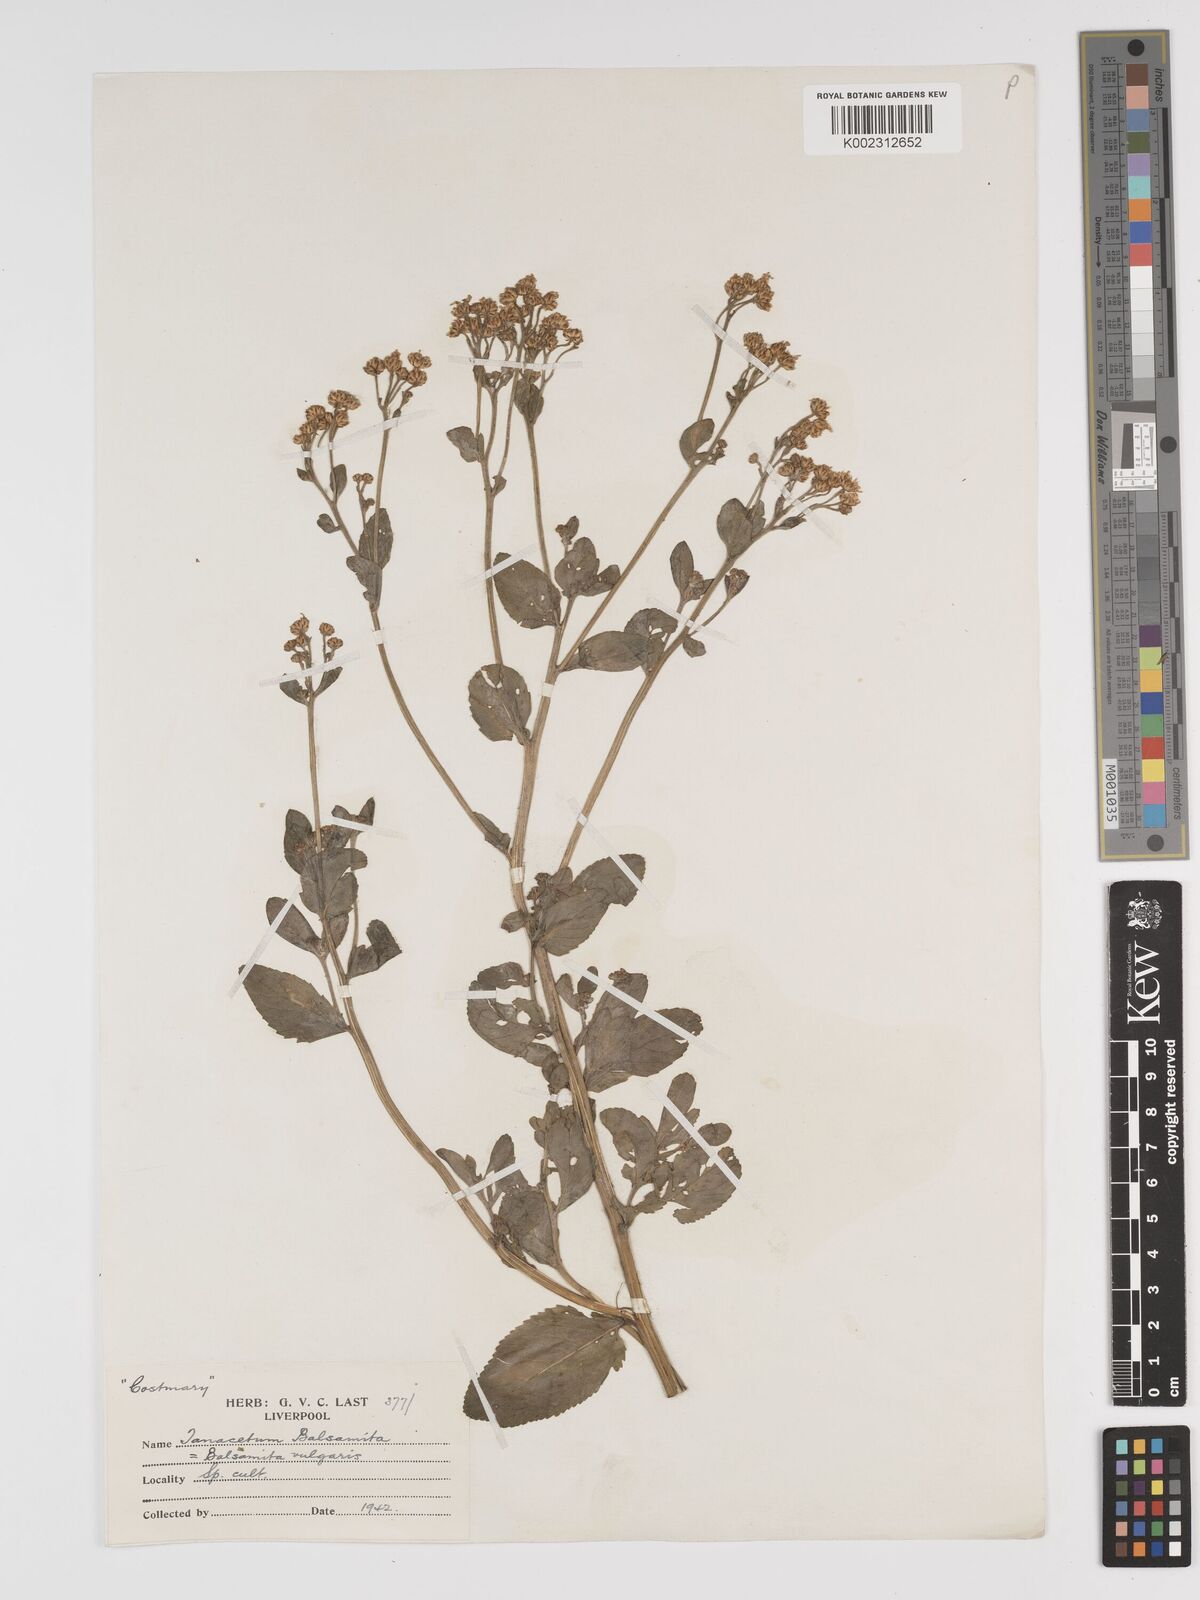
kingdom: Plantae
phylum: Tracheophyta
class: Magnoliopsida
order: Asterales
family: Asteraceae
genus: Tanacetum
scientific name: Tanacetum balsamita
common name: Costmary
